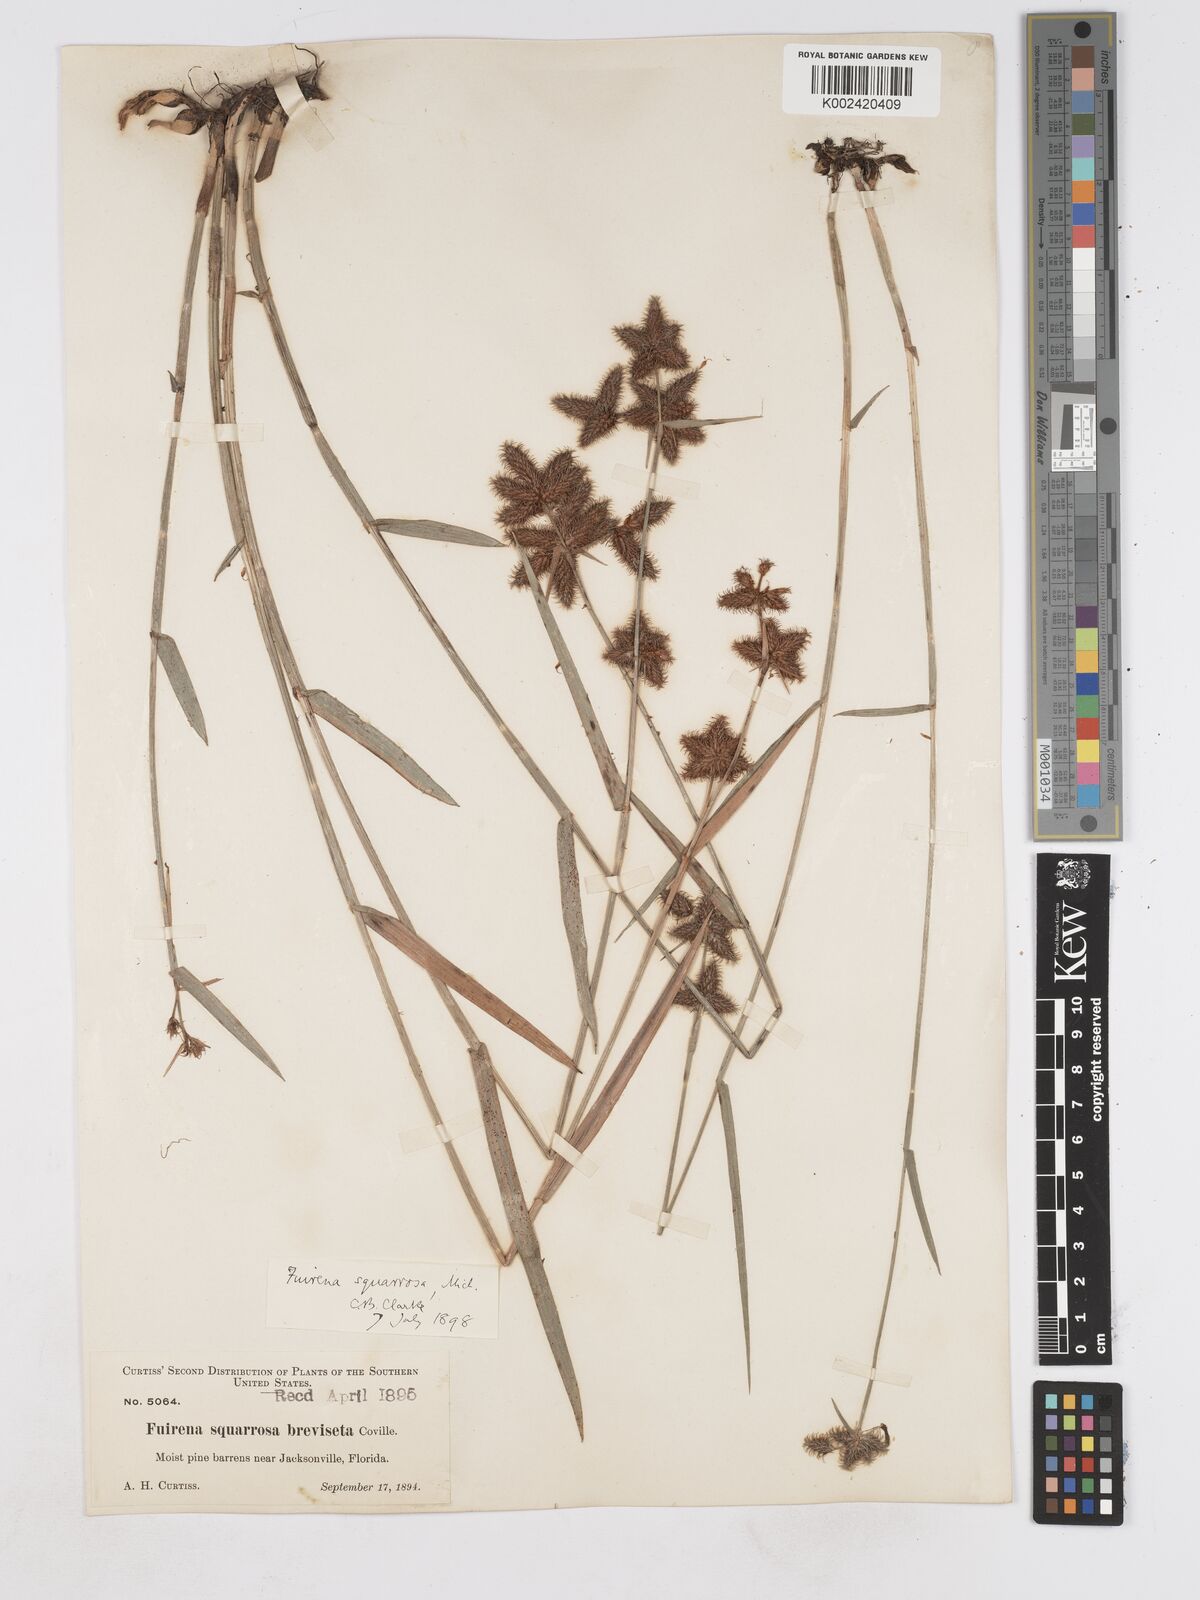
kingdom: Plantae
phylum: Tracheophyta
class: Liliopsida
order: Poales
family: Cyperaceae
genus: Fuirena
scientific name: Fuirena breviseta
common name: Saltmarsh umbrella sedge
